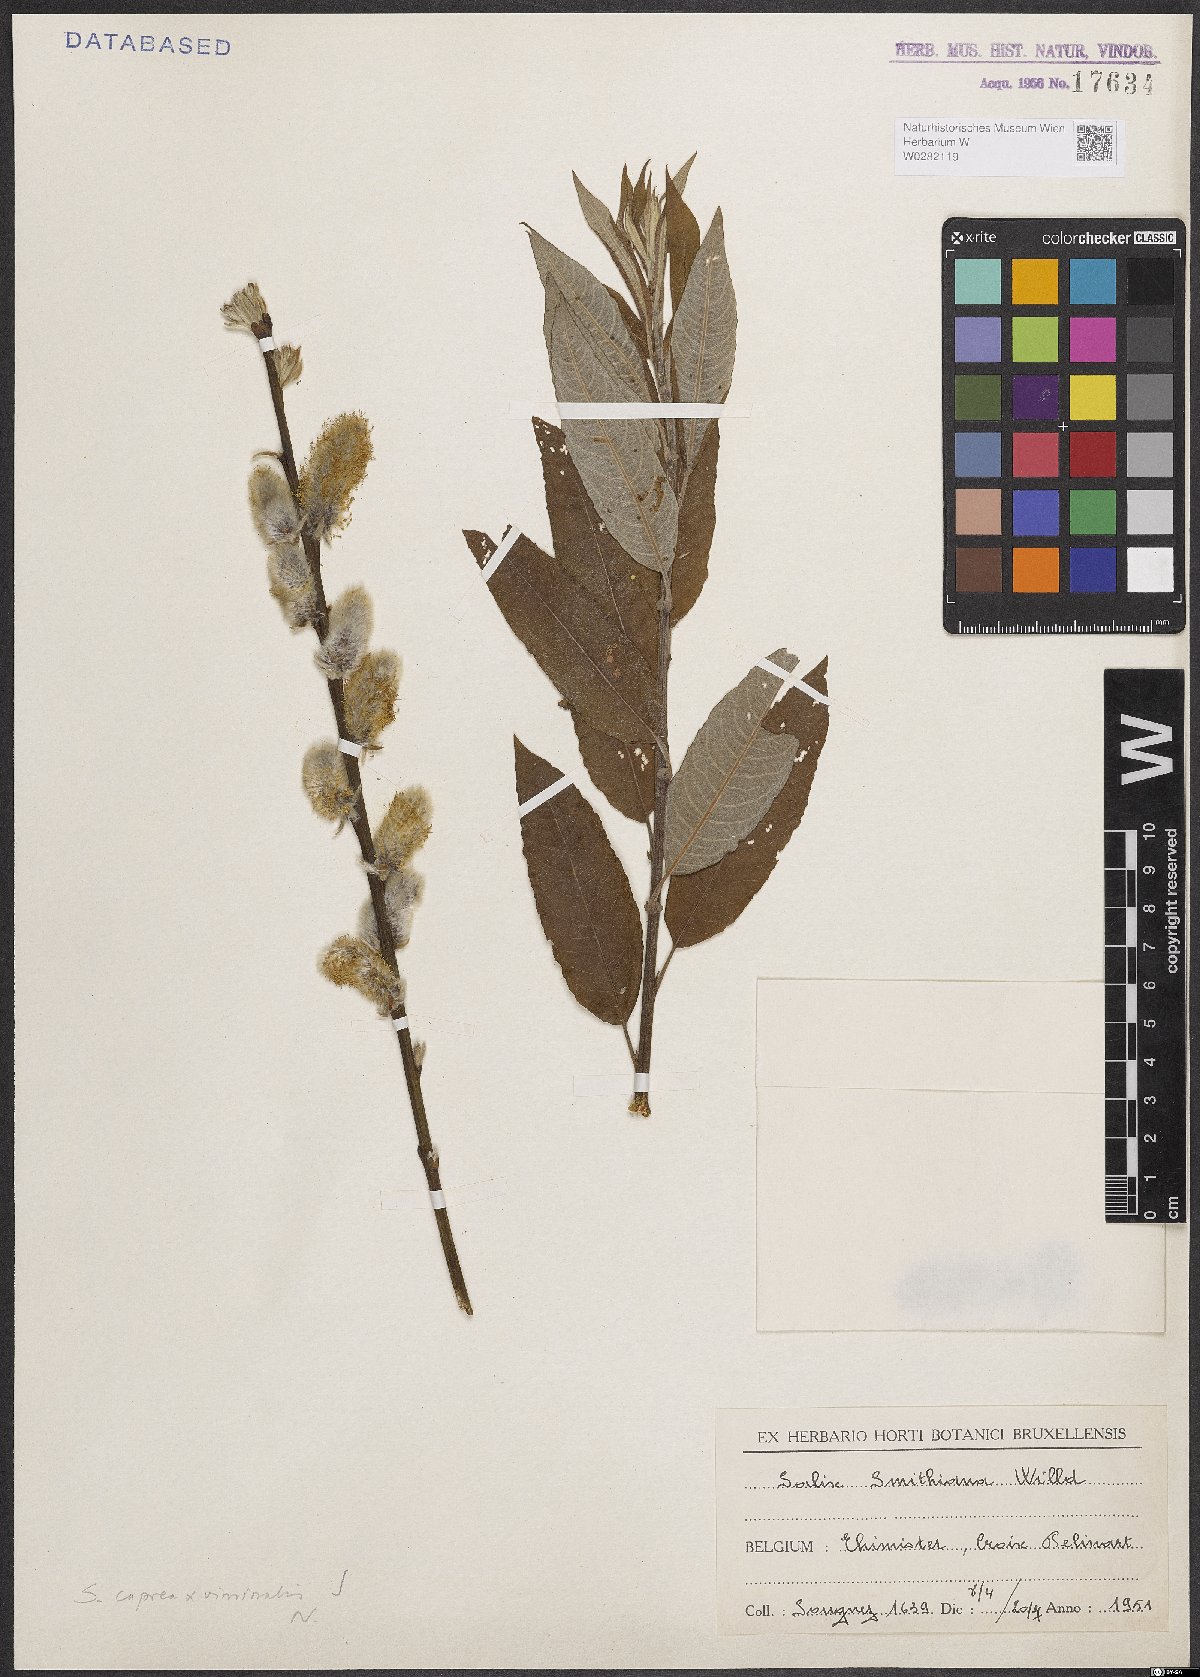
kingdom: Plantae
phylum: Tracheophyta
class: Magnoliopsida
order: Malpighiales
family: Salicaceae
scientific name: Salicaceae
